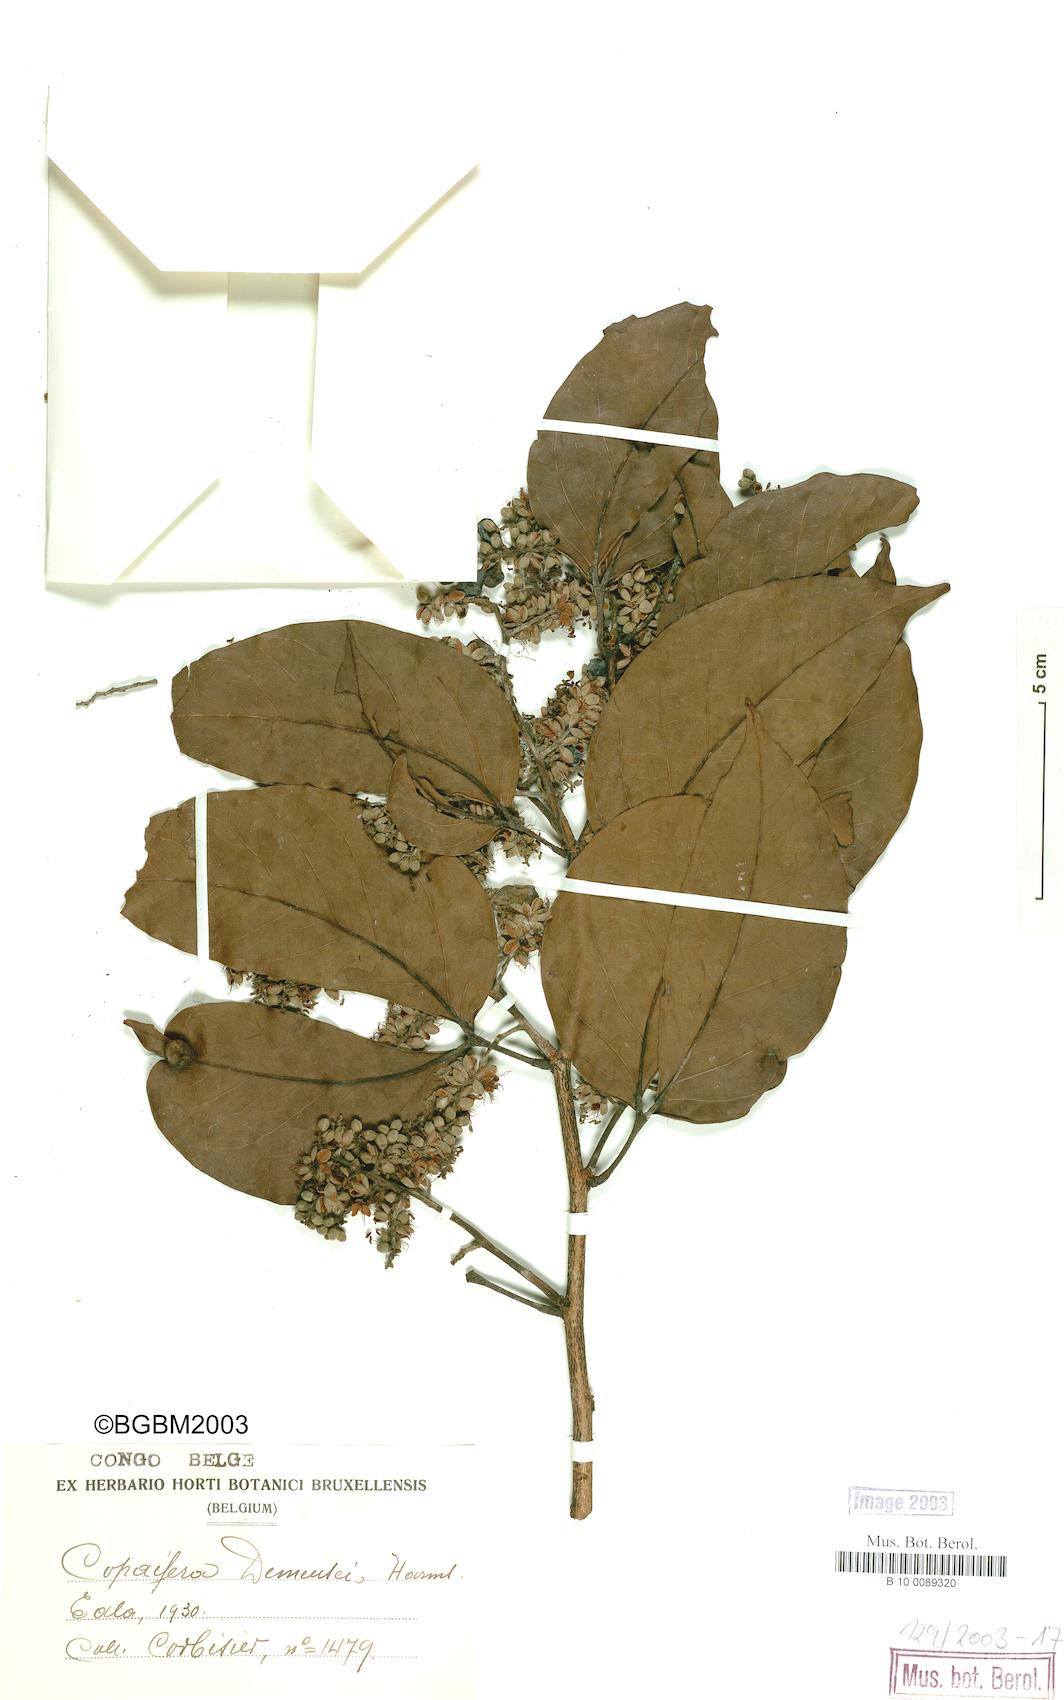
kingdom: Plantae
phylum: Tracheophyta
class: Magnoliopsida
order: Fabales
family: Fabaceae
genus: Guibourtia
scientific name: Guibourtia demeusei
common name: African rosewood
